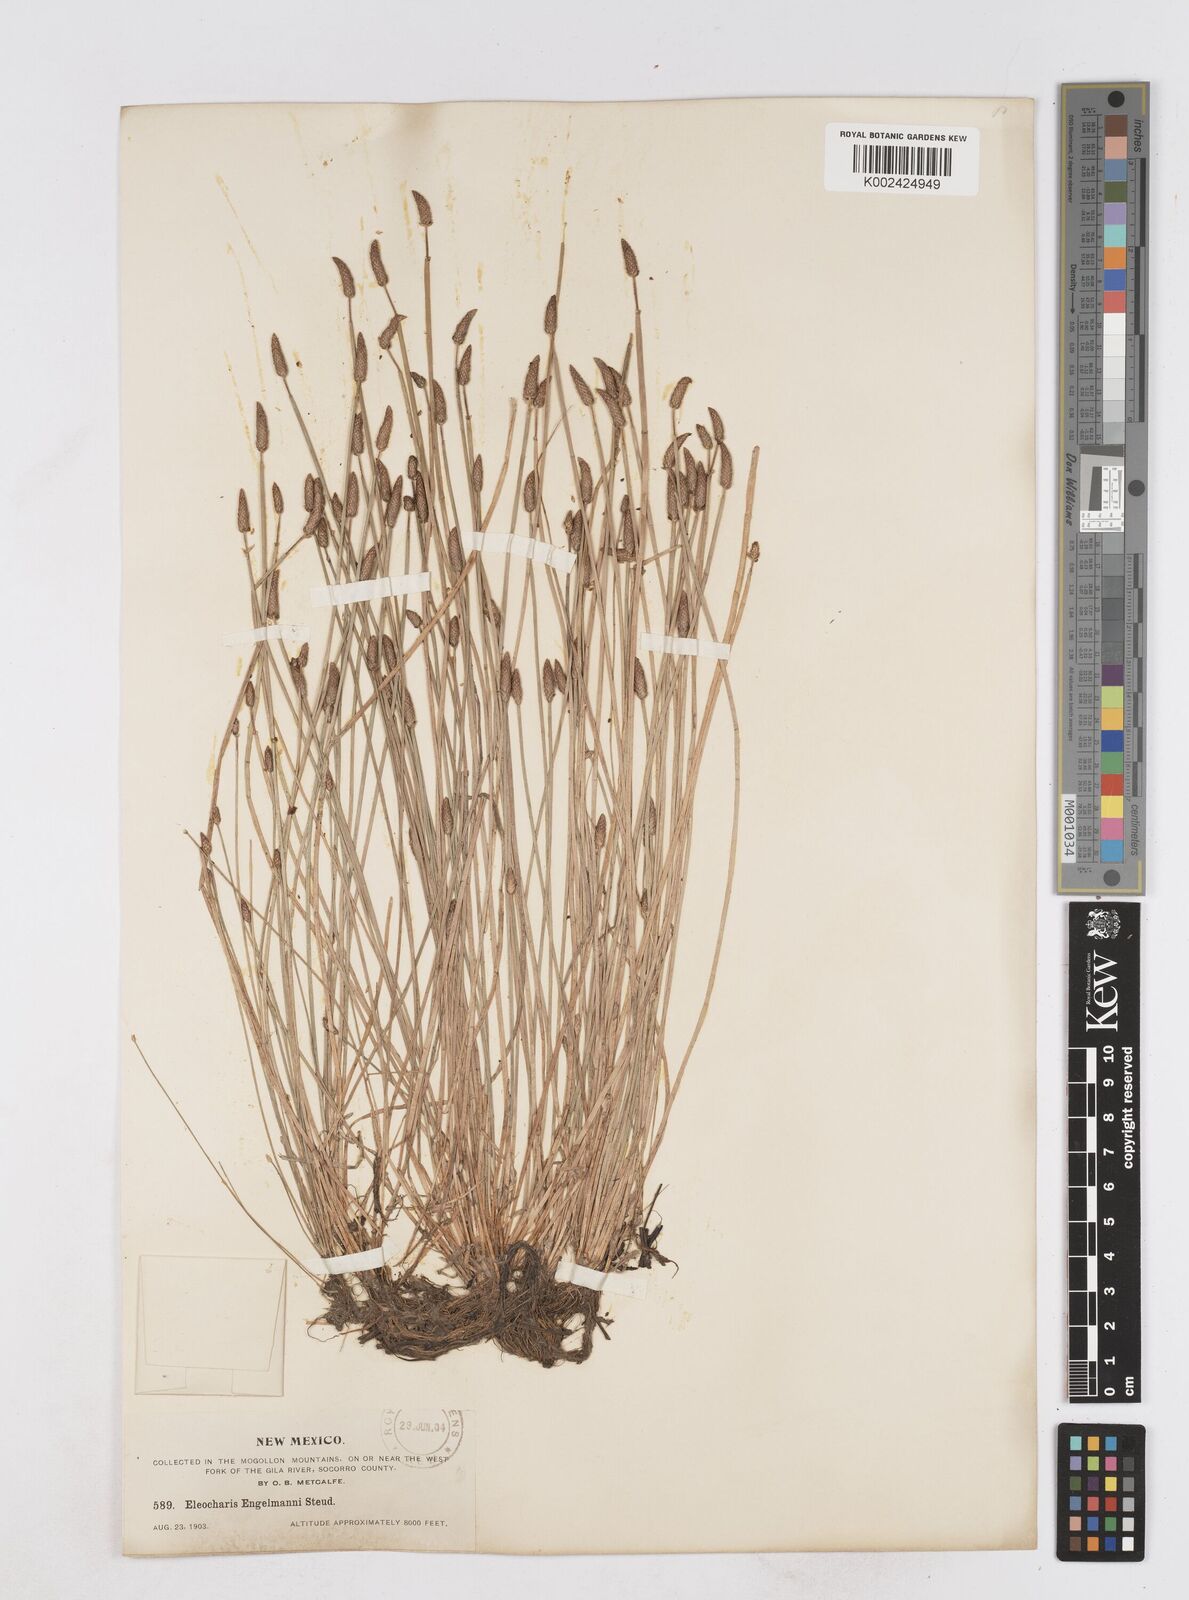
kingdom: Plantae
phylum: Tracheophyta
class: Liliopsida
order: Poales
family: Cyperaceae
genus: Eleocharis
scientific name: Eleocharis engelmannii
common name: Engelmann's spikerush
